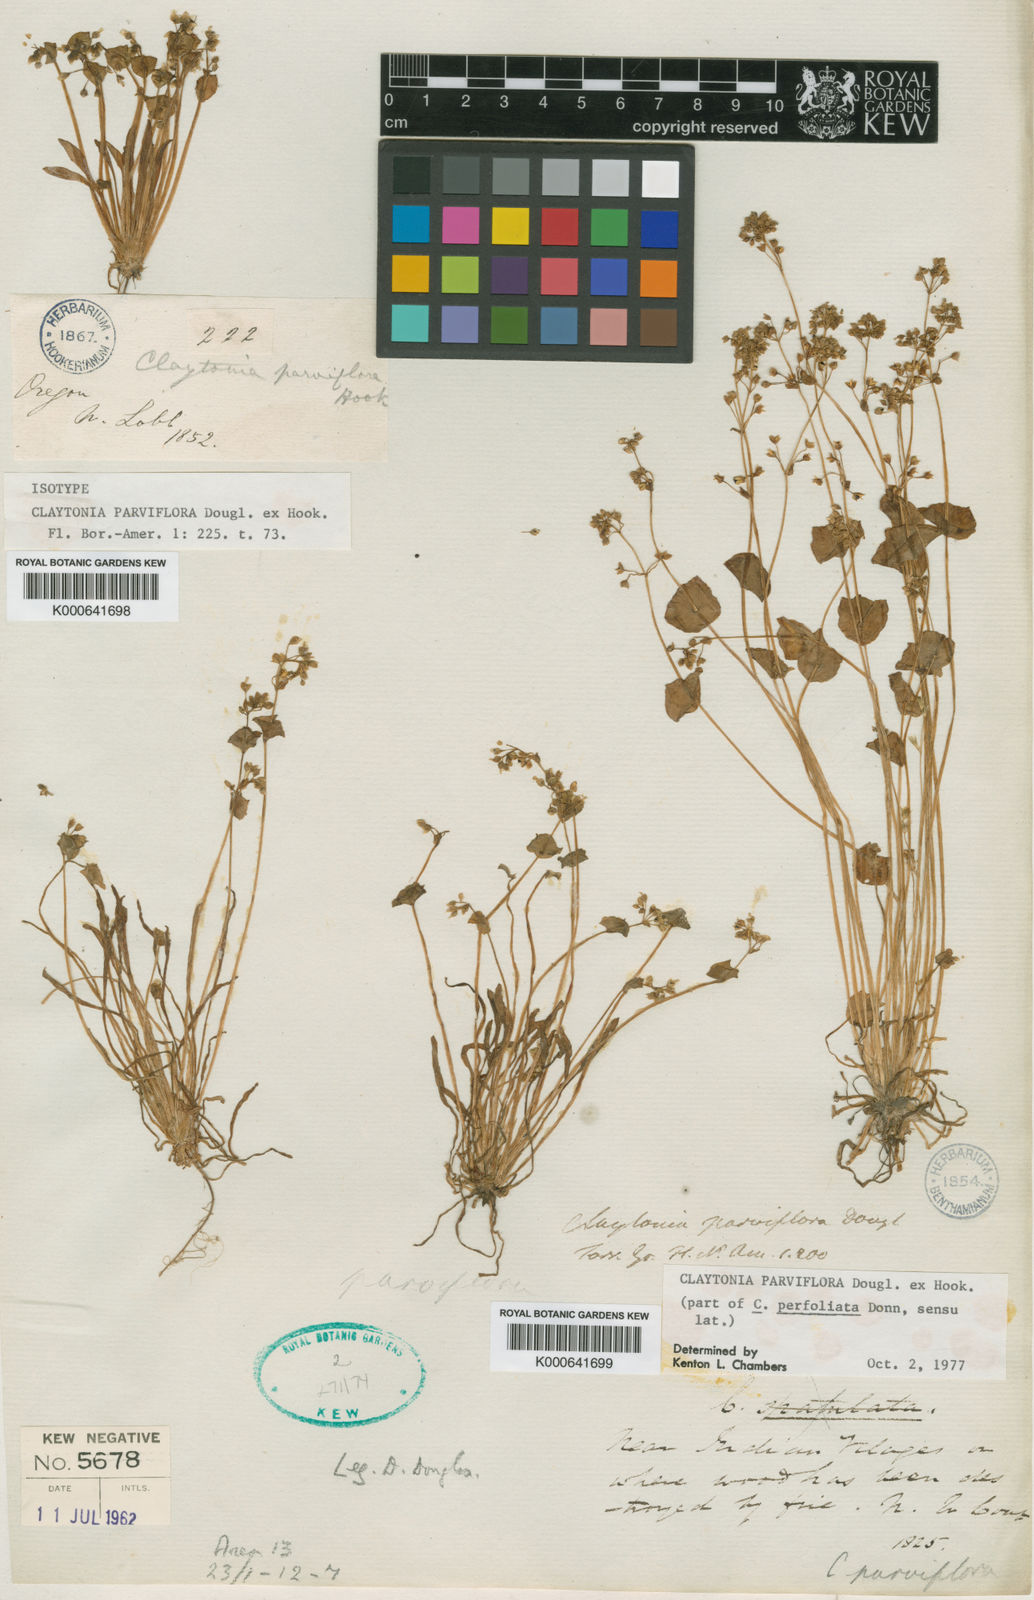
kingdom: Plantae
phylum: Tracheophyta
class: Magnoliopsida
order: Caryophyllales
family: Montiaceae
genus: Claytonia
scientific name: Claytonia parviflora
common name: Indian-lettuce
